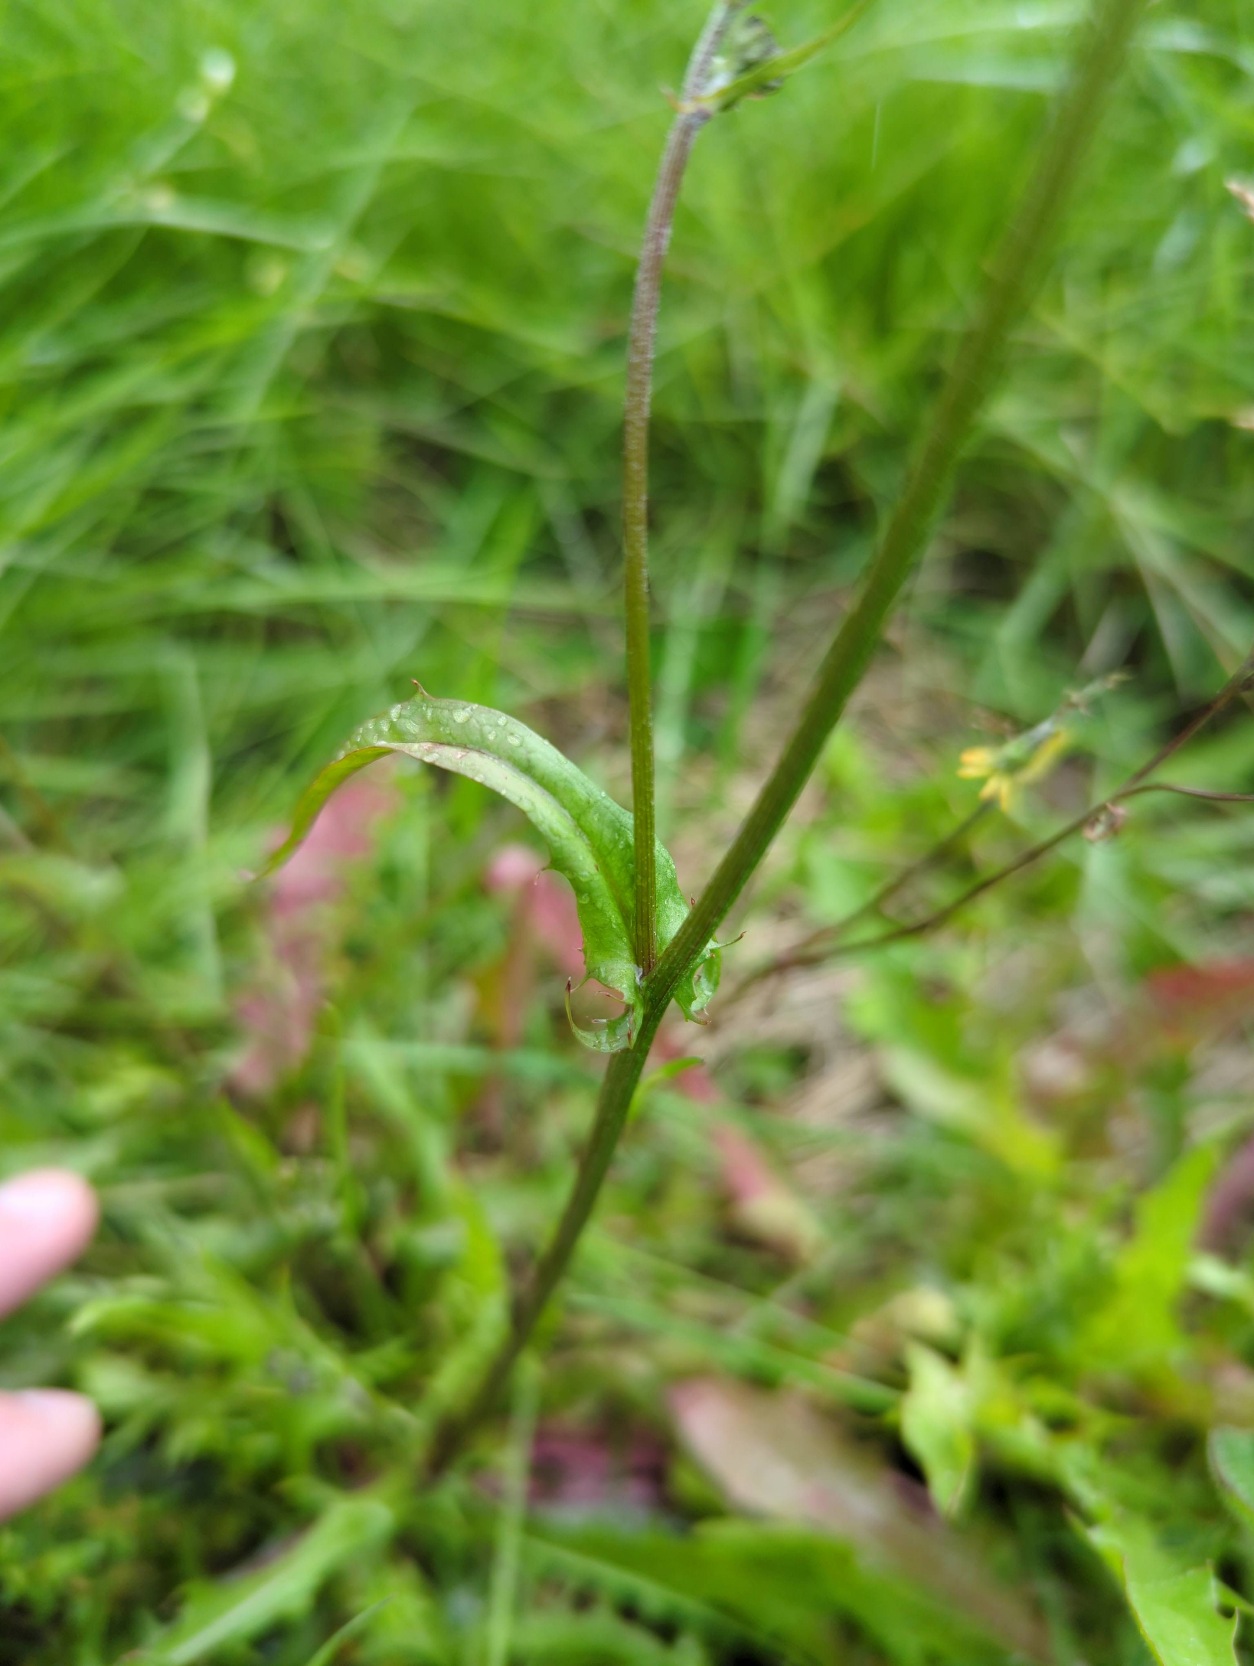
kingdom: Plantae
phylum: Tracheophyta
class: Magnoliopsida
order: Asterales
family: Asteraceae
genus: Crepis
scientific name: Crepis capillaris
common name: Grøn høgeskæg
